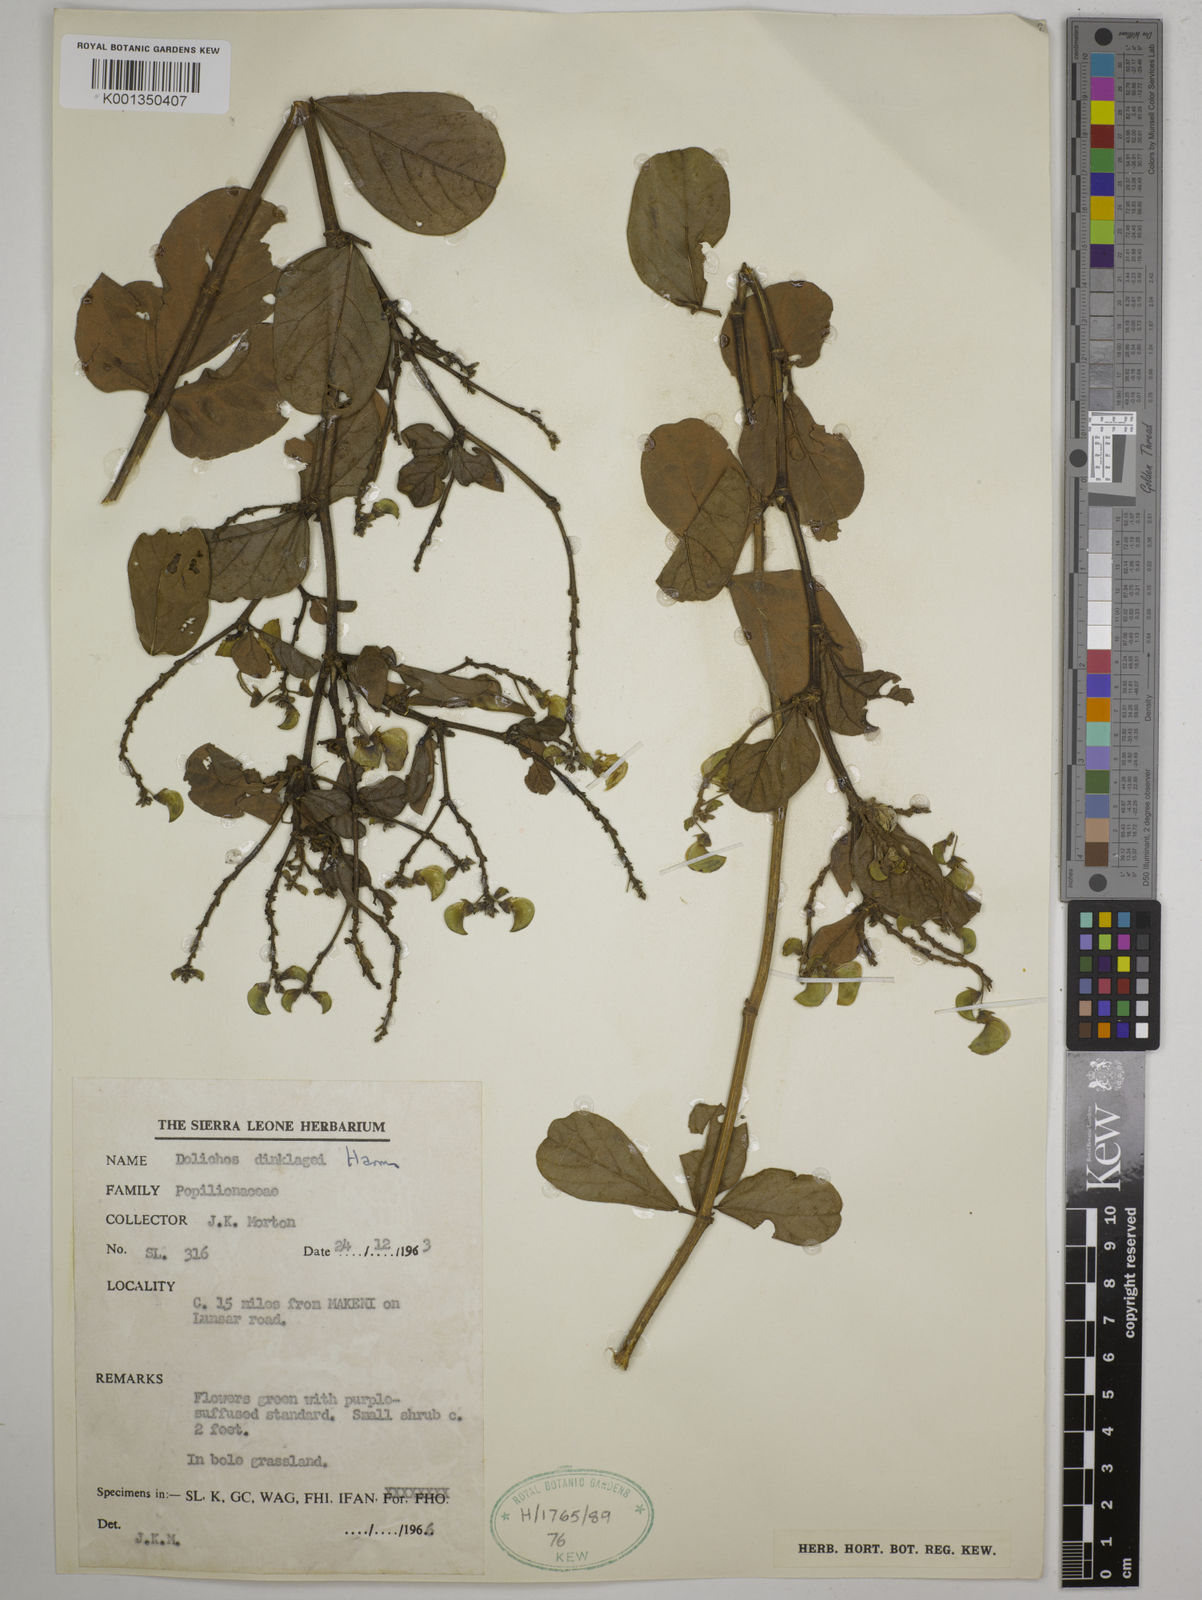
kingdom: Plantae
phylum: Tracheophyta
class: Magnoliopsida
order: Fabales
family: Fabaceae
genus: Dolichos
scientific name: Dolichos dinklagei
